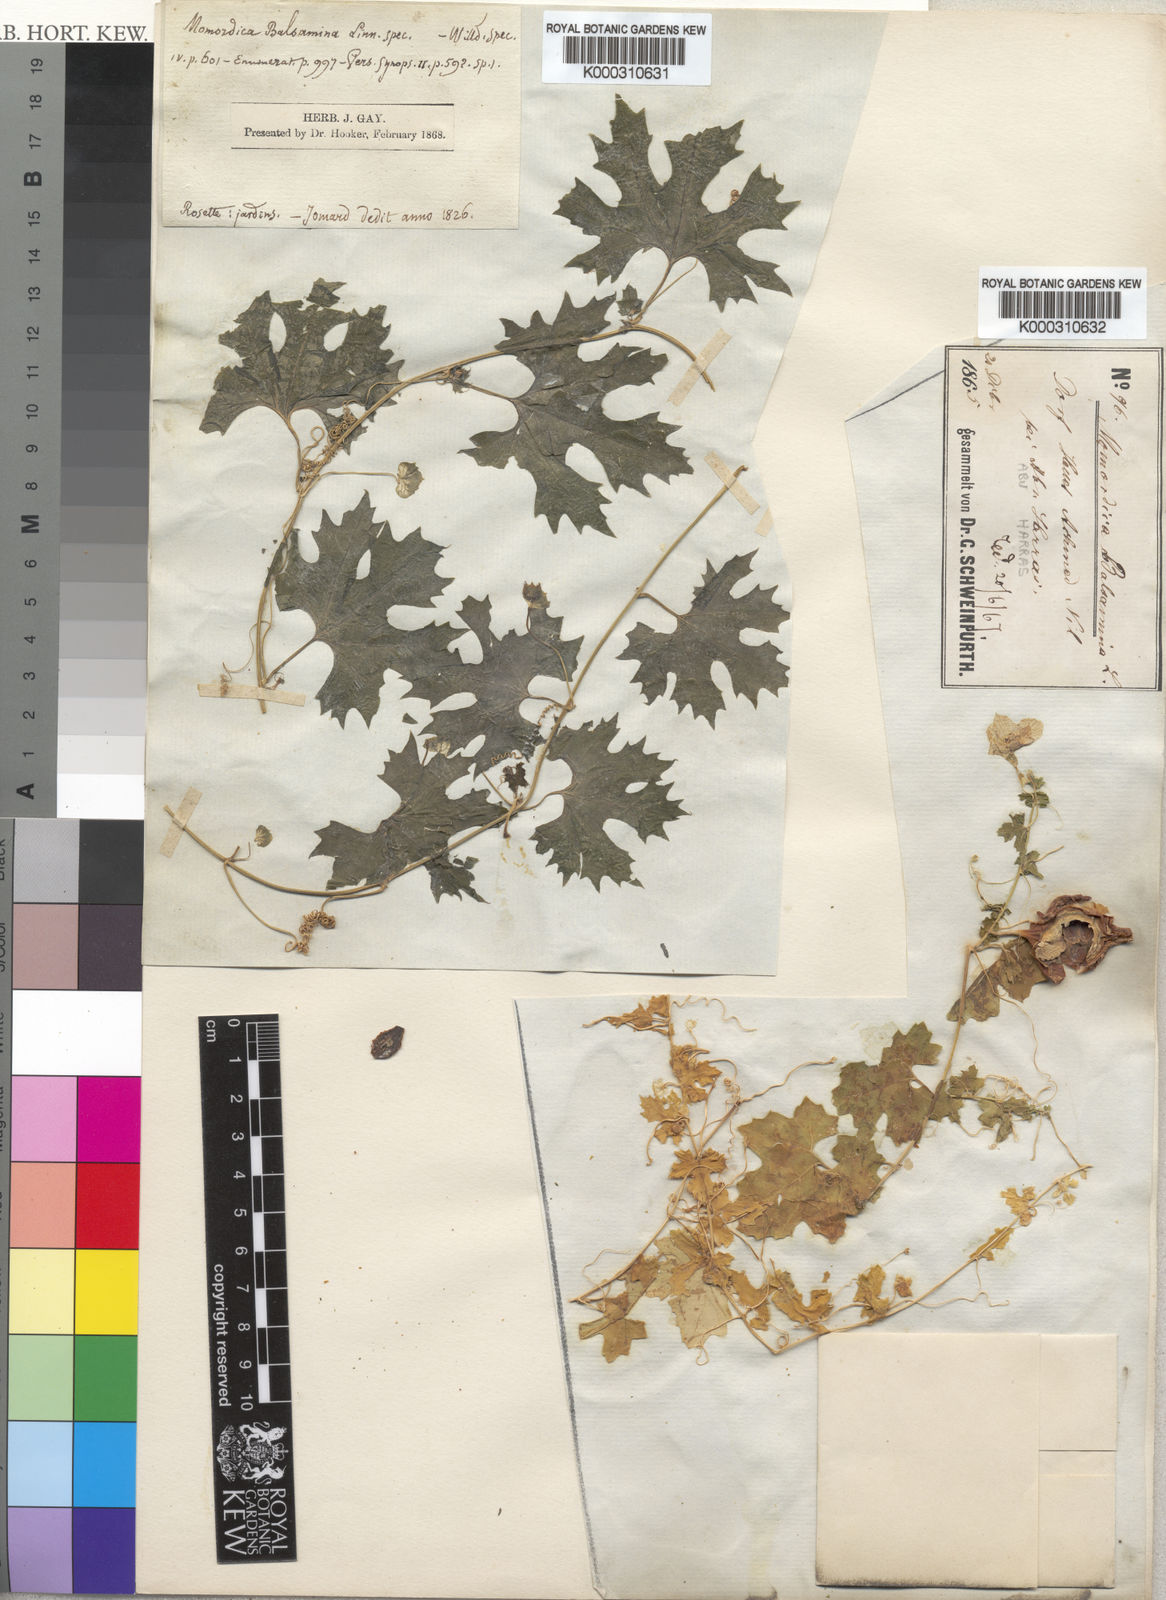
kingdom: Plantae
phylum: Tracheophyta
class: Magnoliopsida
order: Cucurbitales
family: Cucurbitaceae
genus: Momordica
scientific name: Momordica balsamina
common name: Southern balsampear
